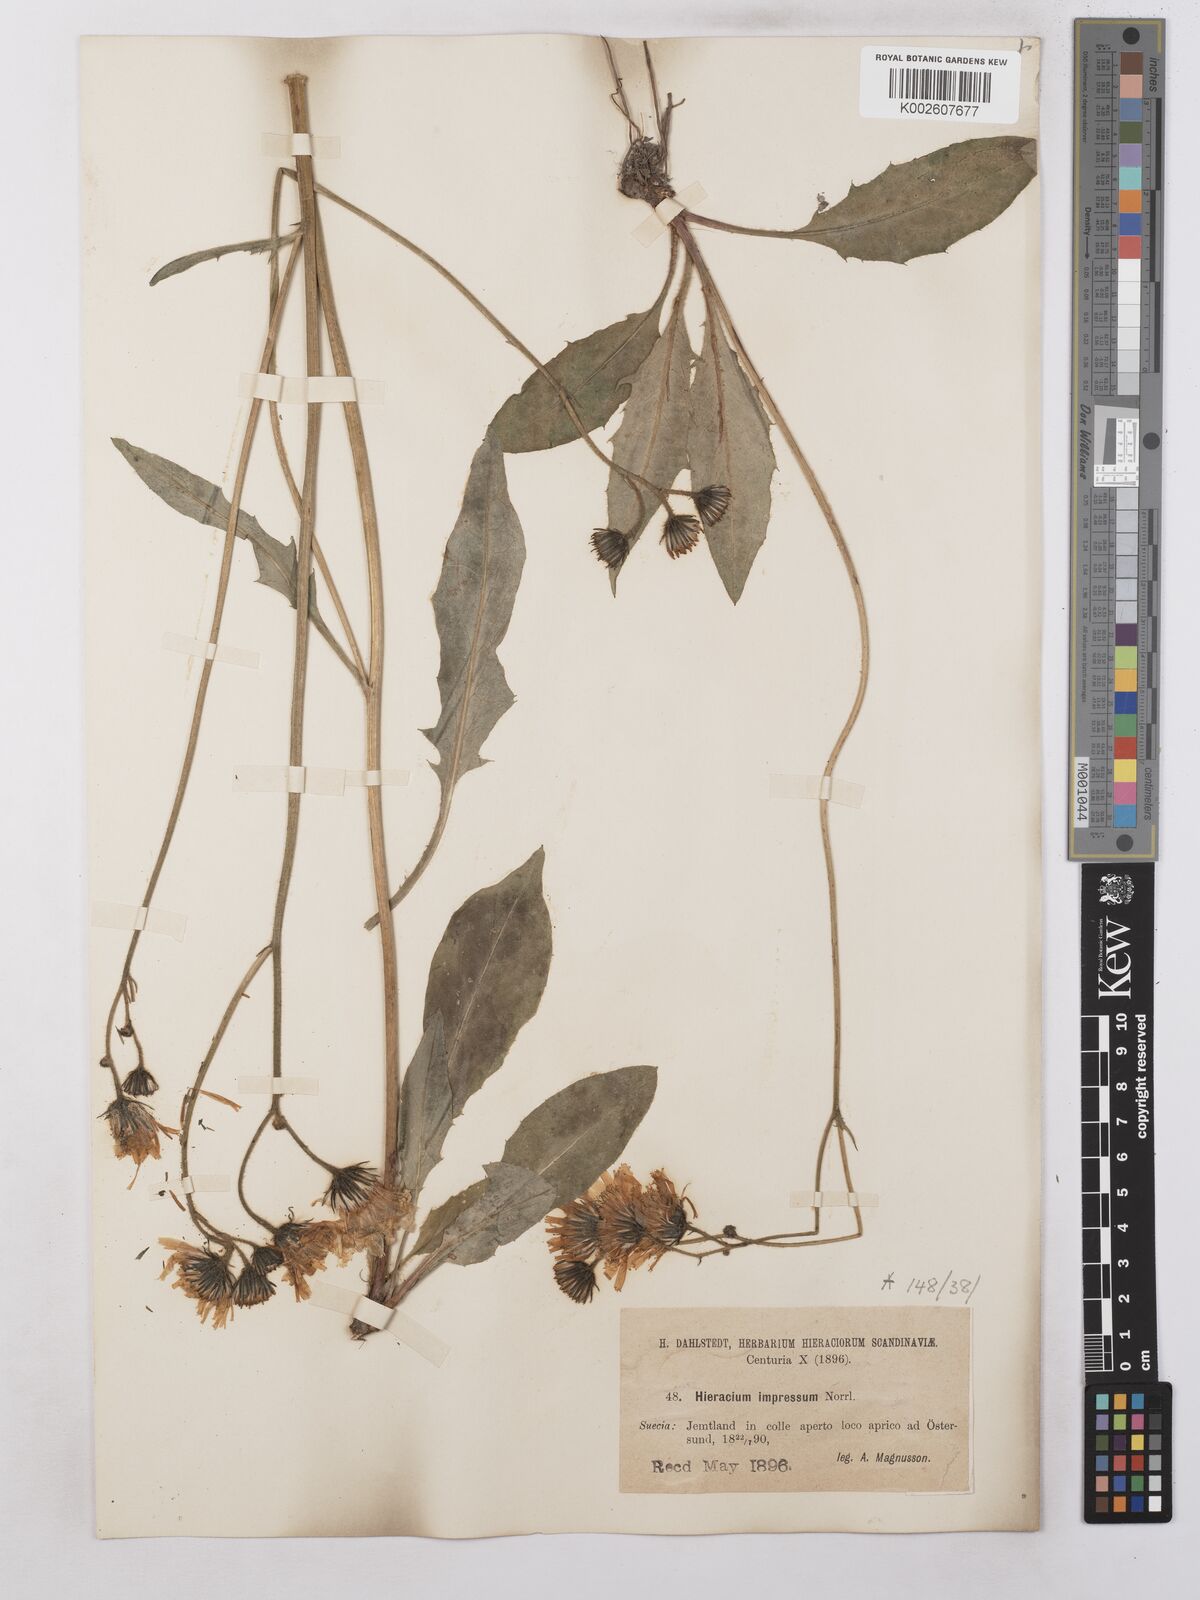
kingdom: Plantae
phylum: Tracheophyta
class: Magnoliopsida
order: Asterales
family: Asteraceae
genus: Hieracium
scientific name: Hieracium subramosum
